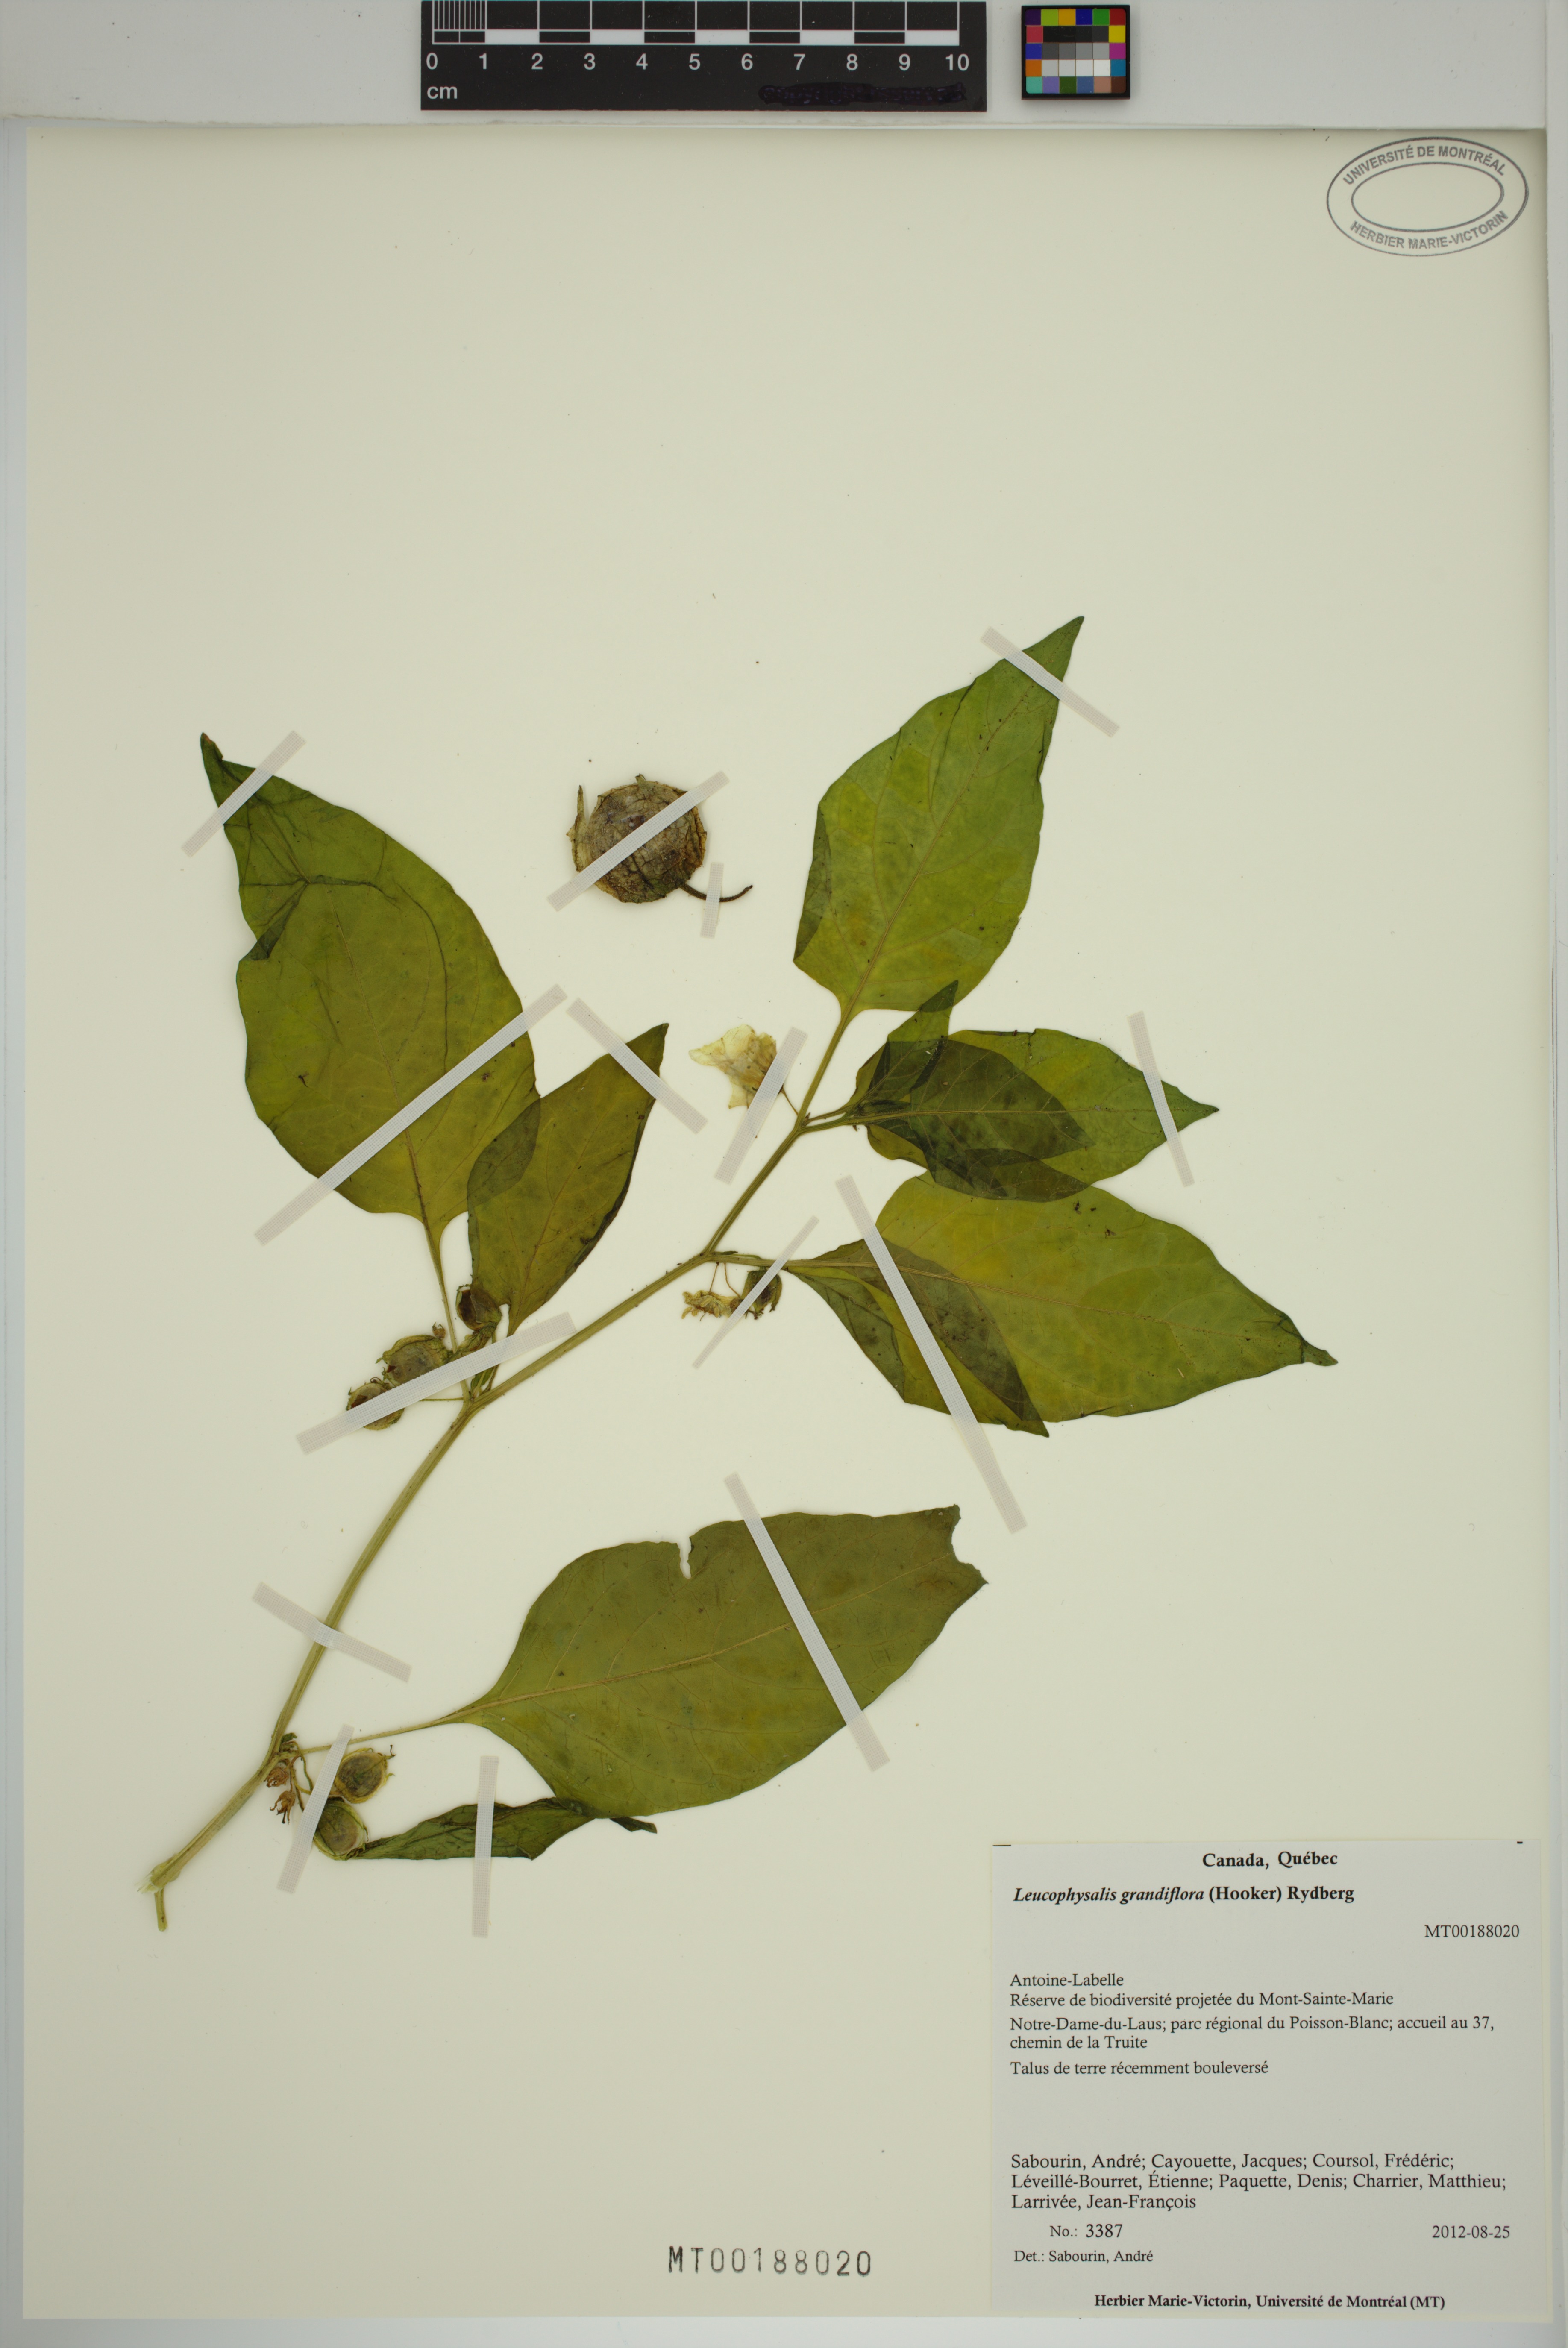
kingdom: Plantae
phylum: Tracheophyta
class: Magnoliopsida
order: Solanales
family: Solanaceae
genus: Leucophysalis
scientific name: Leucophysalis grandiflora
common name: Large false ground-cherry
